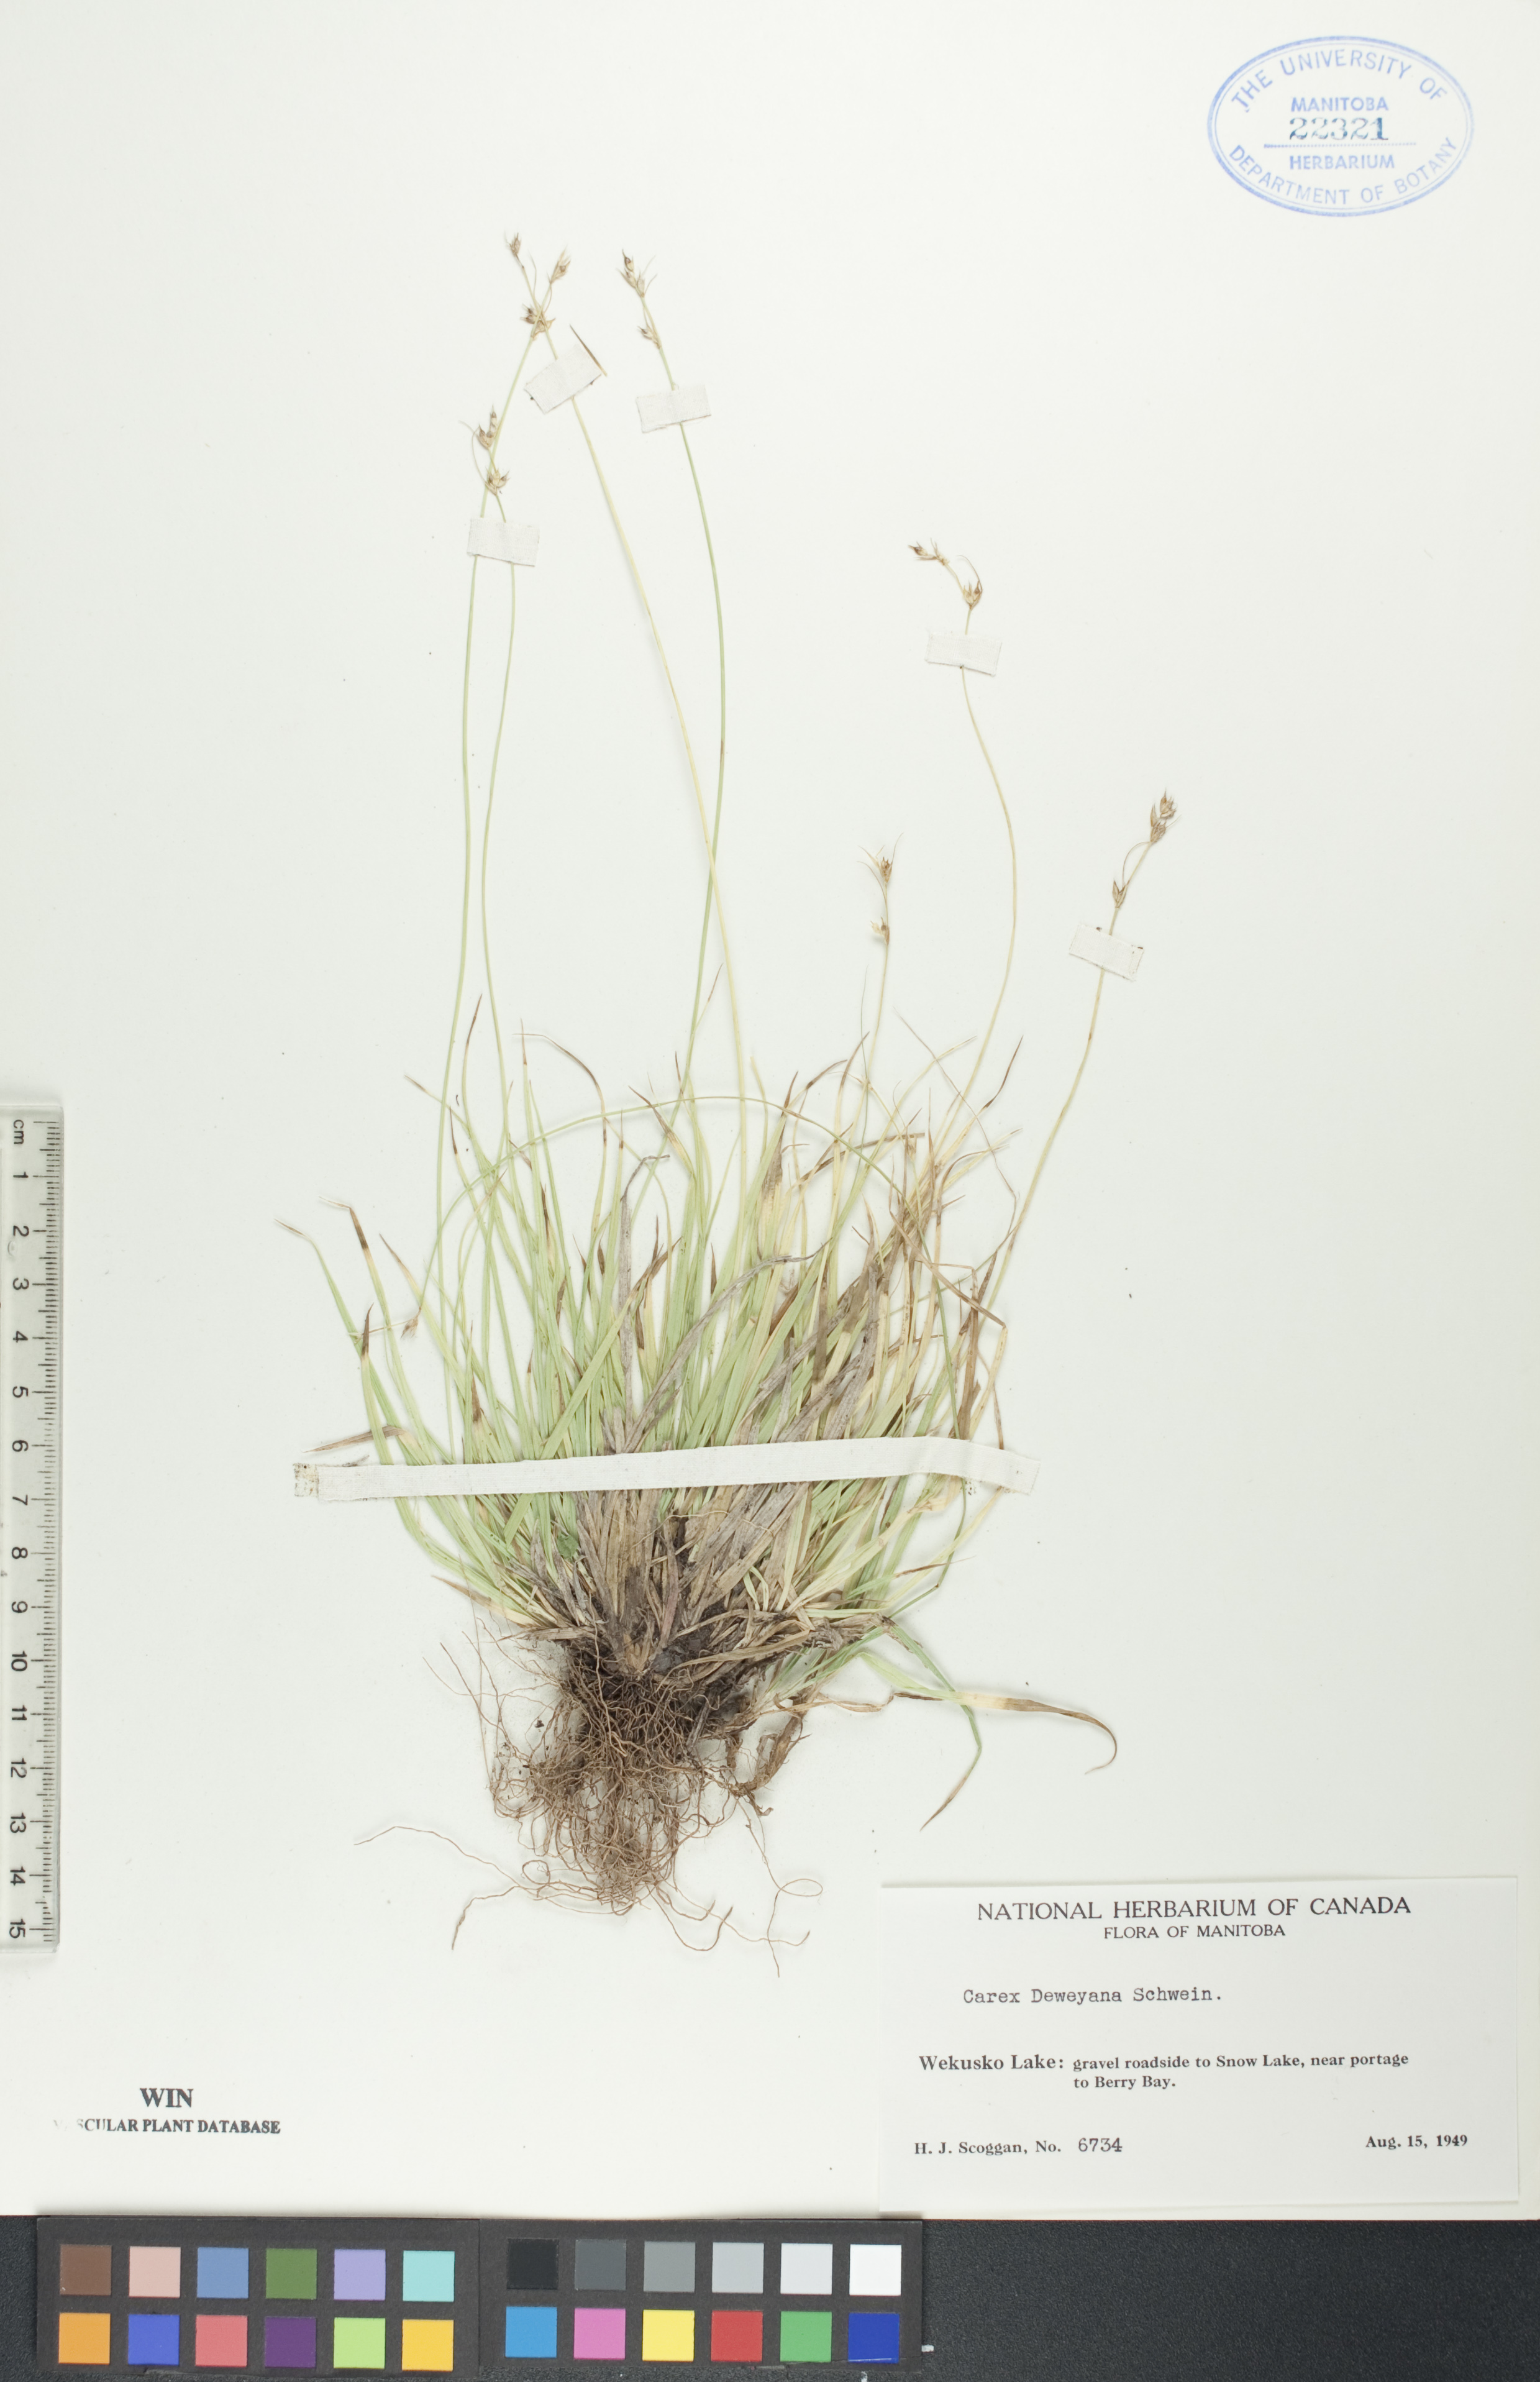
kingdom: Plantae
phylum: Tracheophyta
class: Liliopsida
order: Poales
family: Cyperaceae
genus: Carex
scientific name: Carex deweyana
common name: Dewey's sedge
